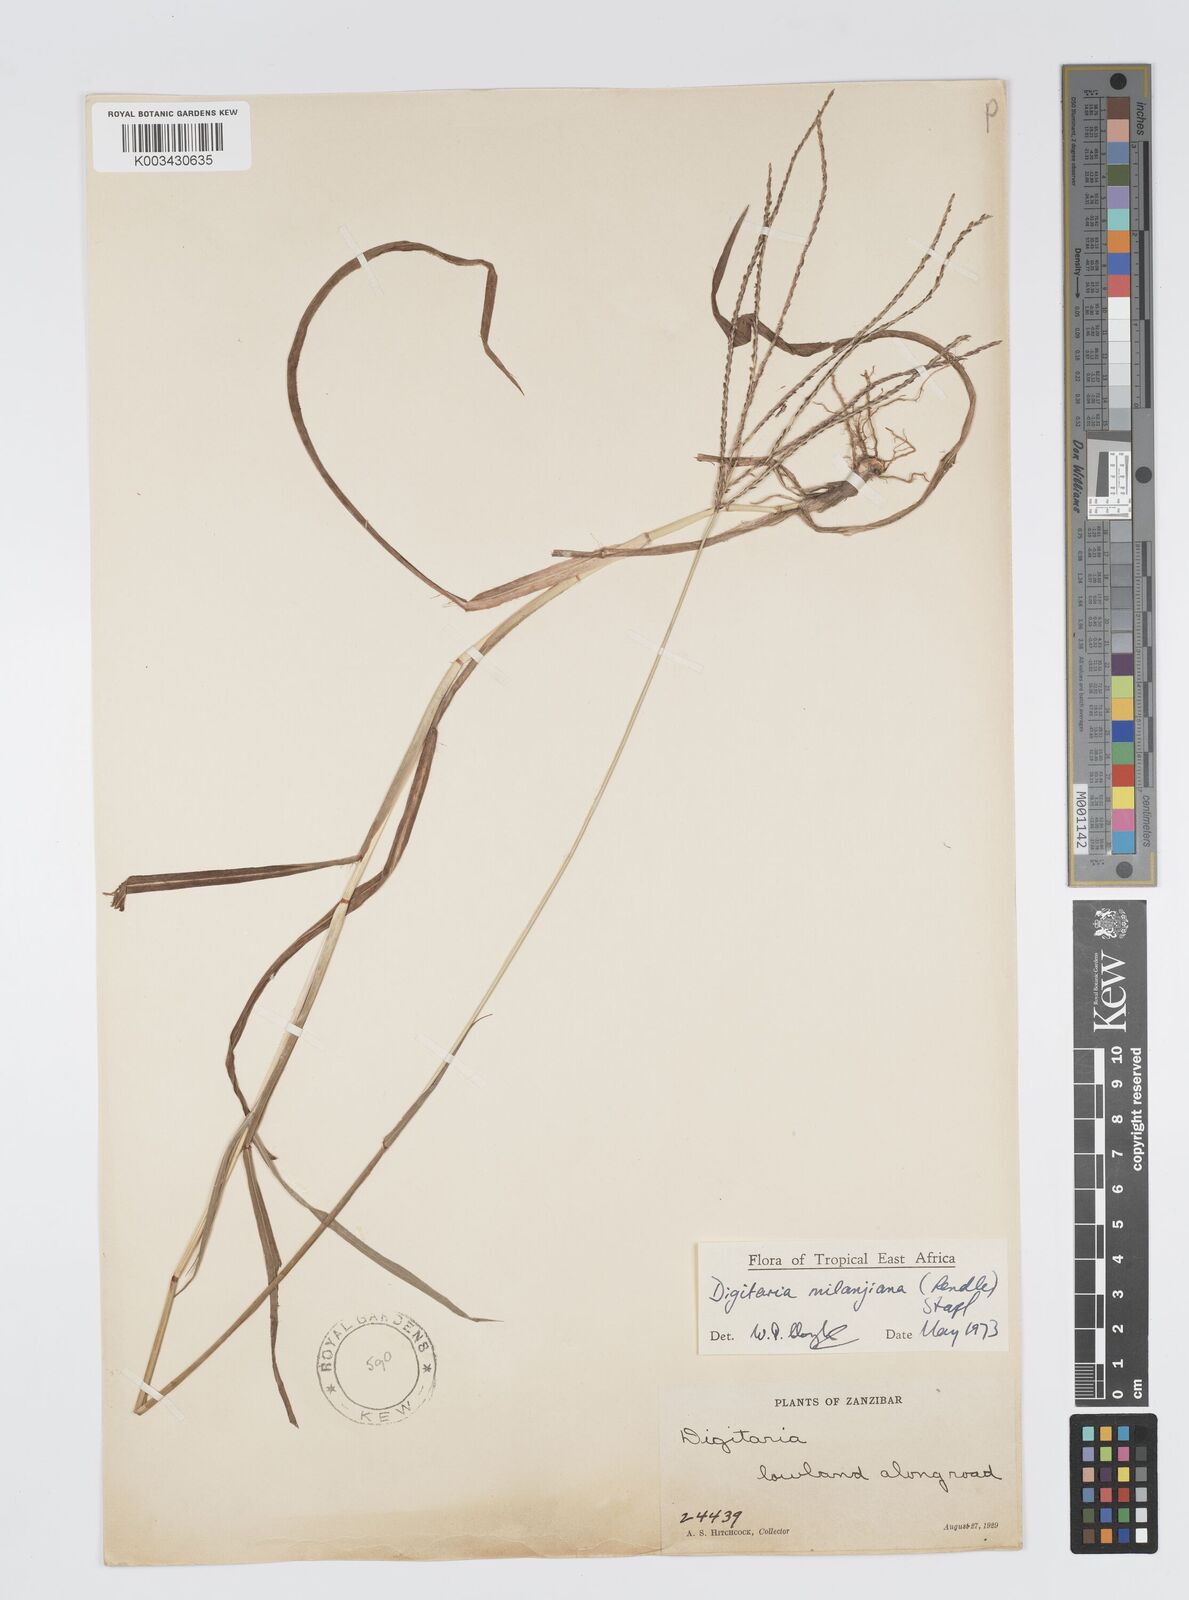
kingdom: Plantae
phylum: Tracheophyta
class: Liliopsida
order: Poales
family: Poaceae
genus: Digitaria
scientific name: Digitaria milanjiana
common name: Madagascar crabgrass
